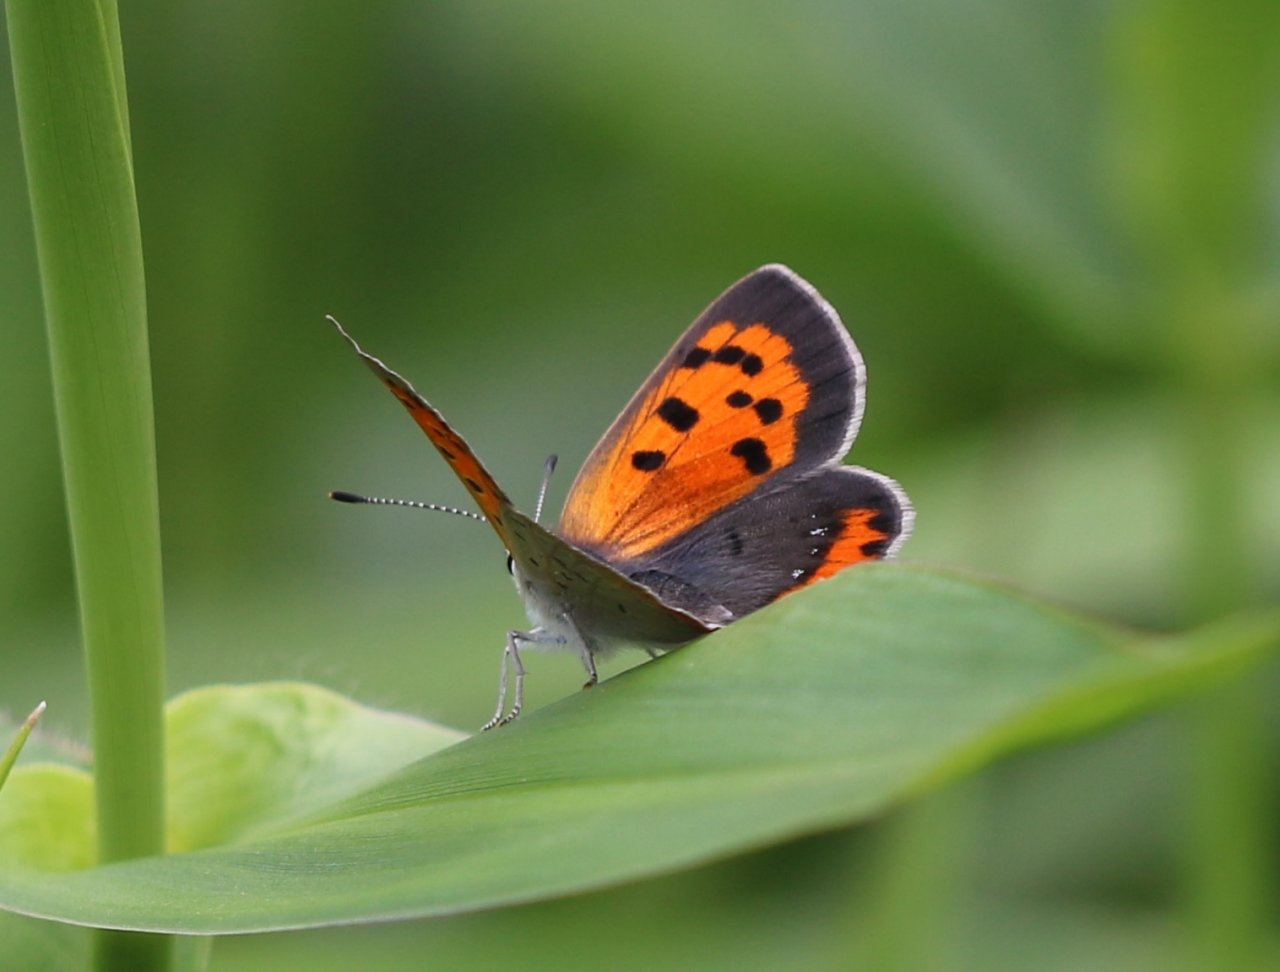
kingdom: Animalia
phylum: Arthropoda
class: Insecta
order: Lepidoptera
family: Lycaenidae
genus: Lycaena
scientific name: Lycaena phlaeas
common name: American Copper
